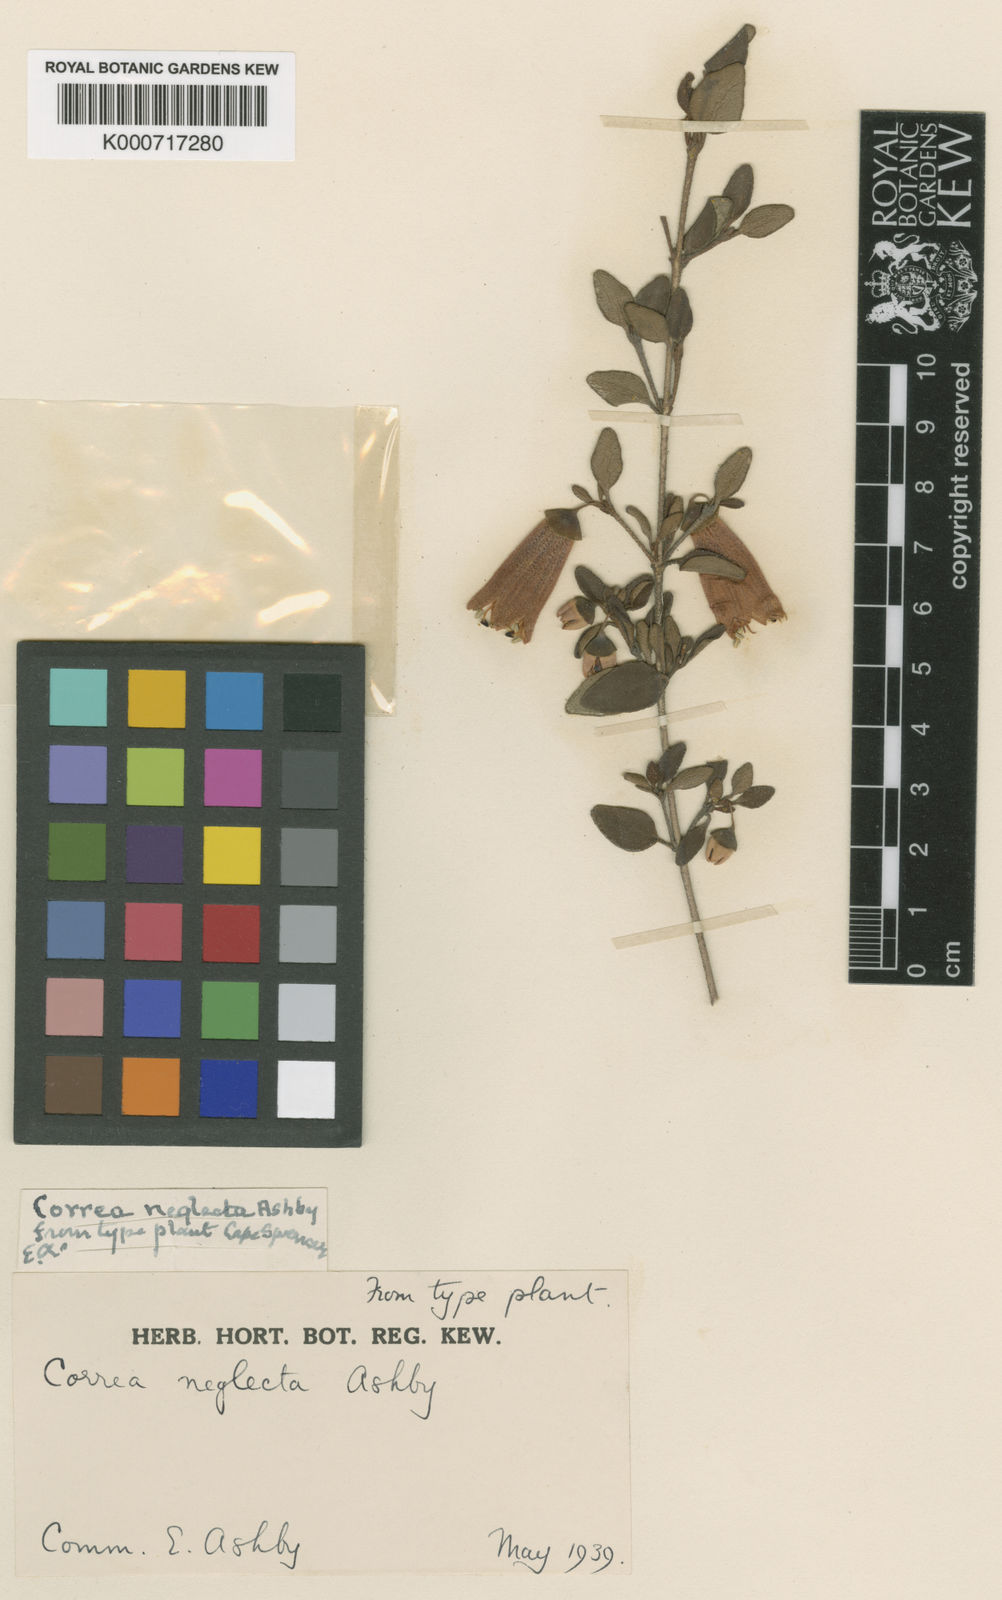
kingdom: Plantae
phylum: Tracheophyta
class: Magnoliopsida
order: Sapindales
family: Rutaceae
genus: Correa
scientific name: Correa pulchella
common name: Salmon correa
